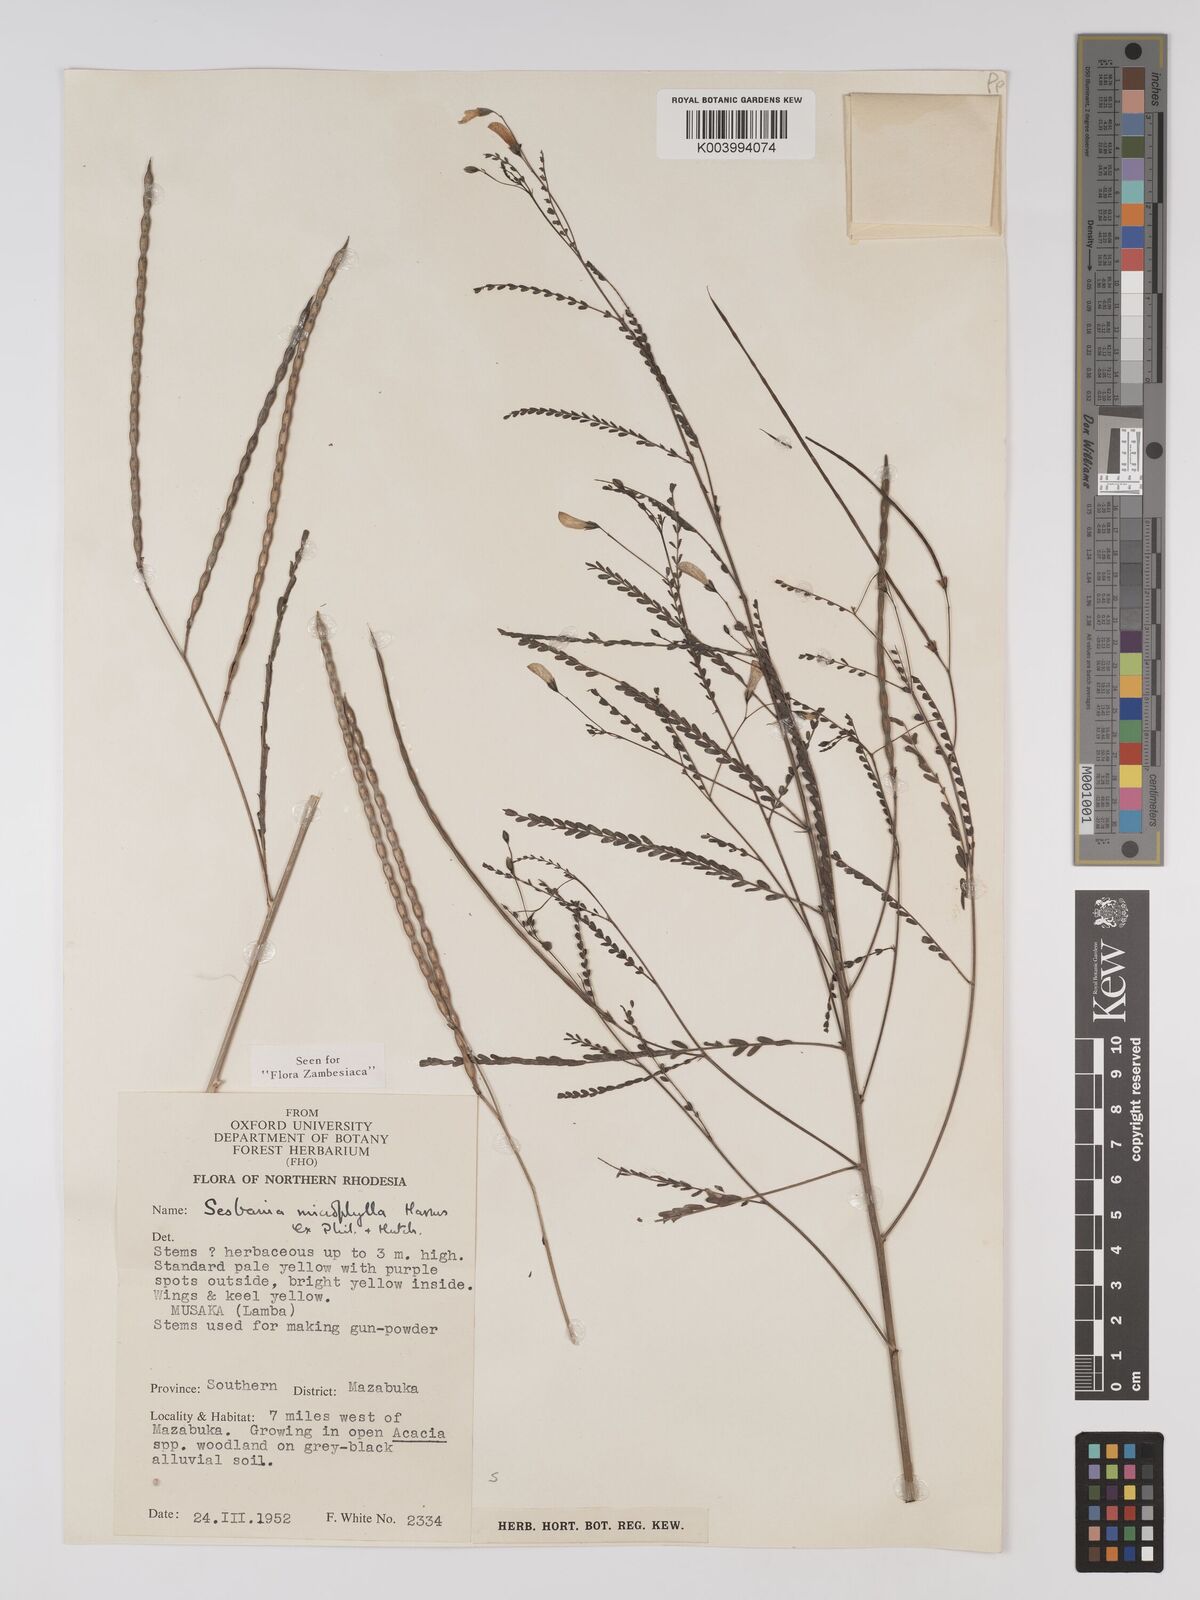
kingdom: Plantae
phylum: Tracheophyta
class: Magnoliopsida
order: Fabales
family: Fabaceae
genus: Sesbania
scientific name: Sesbania microphylla
